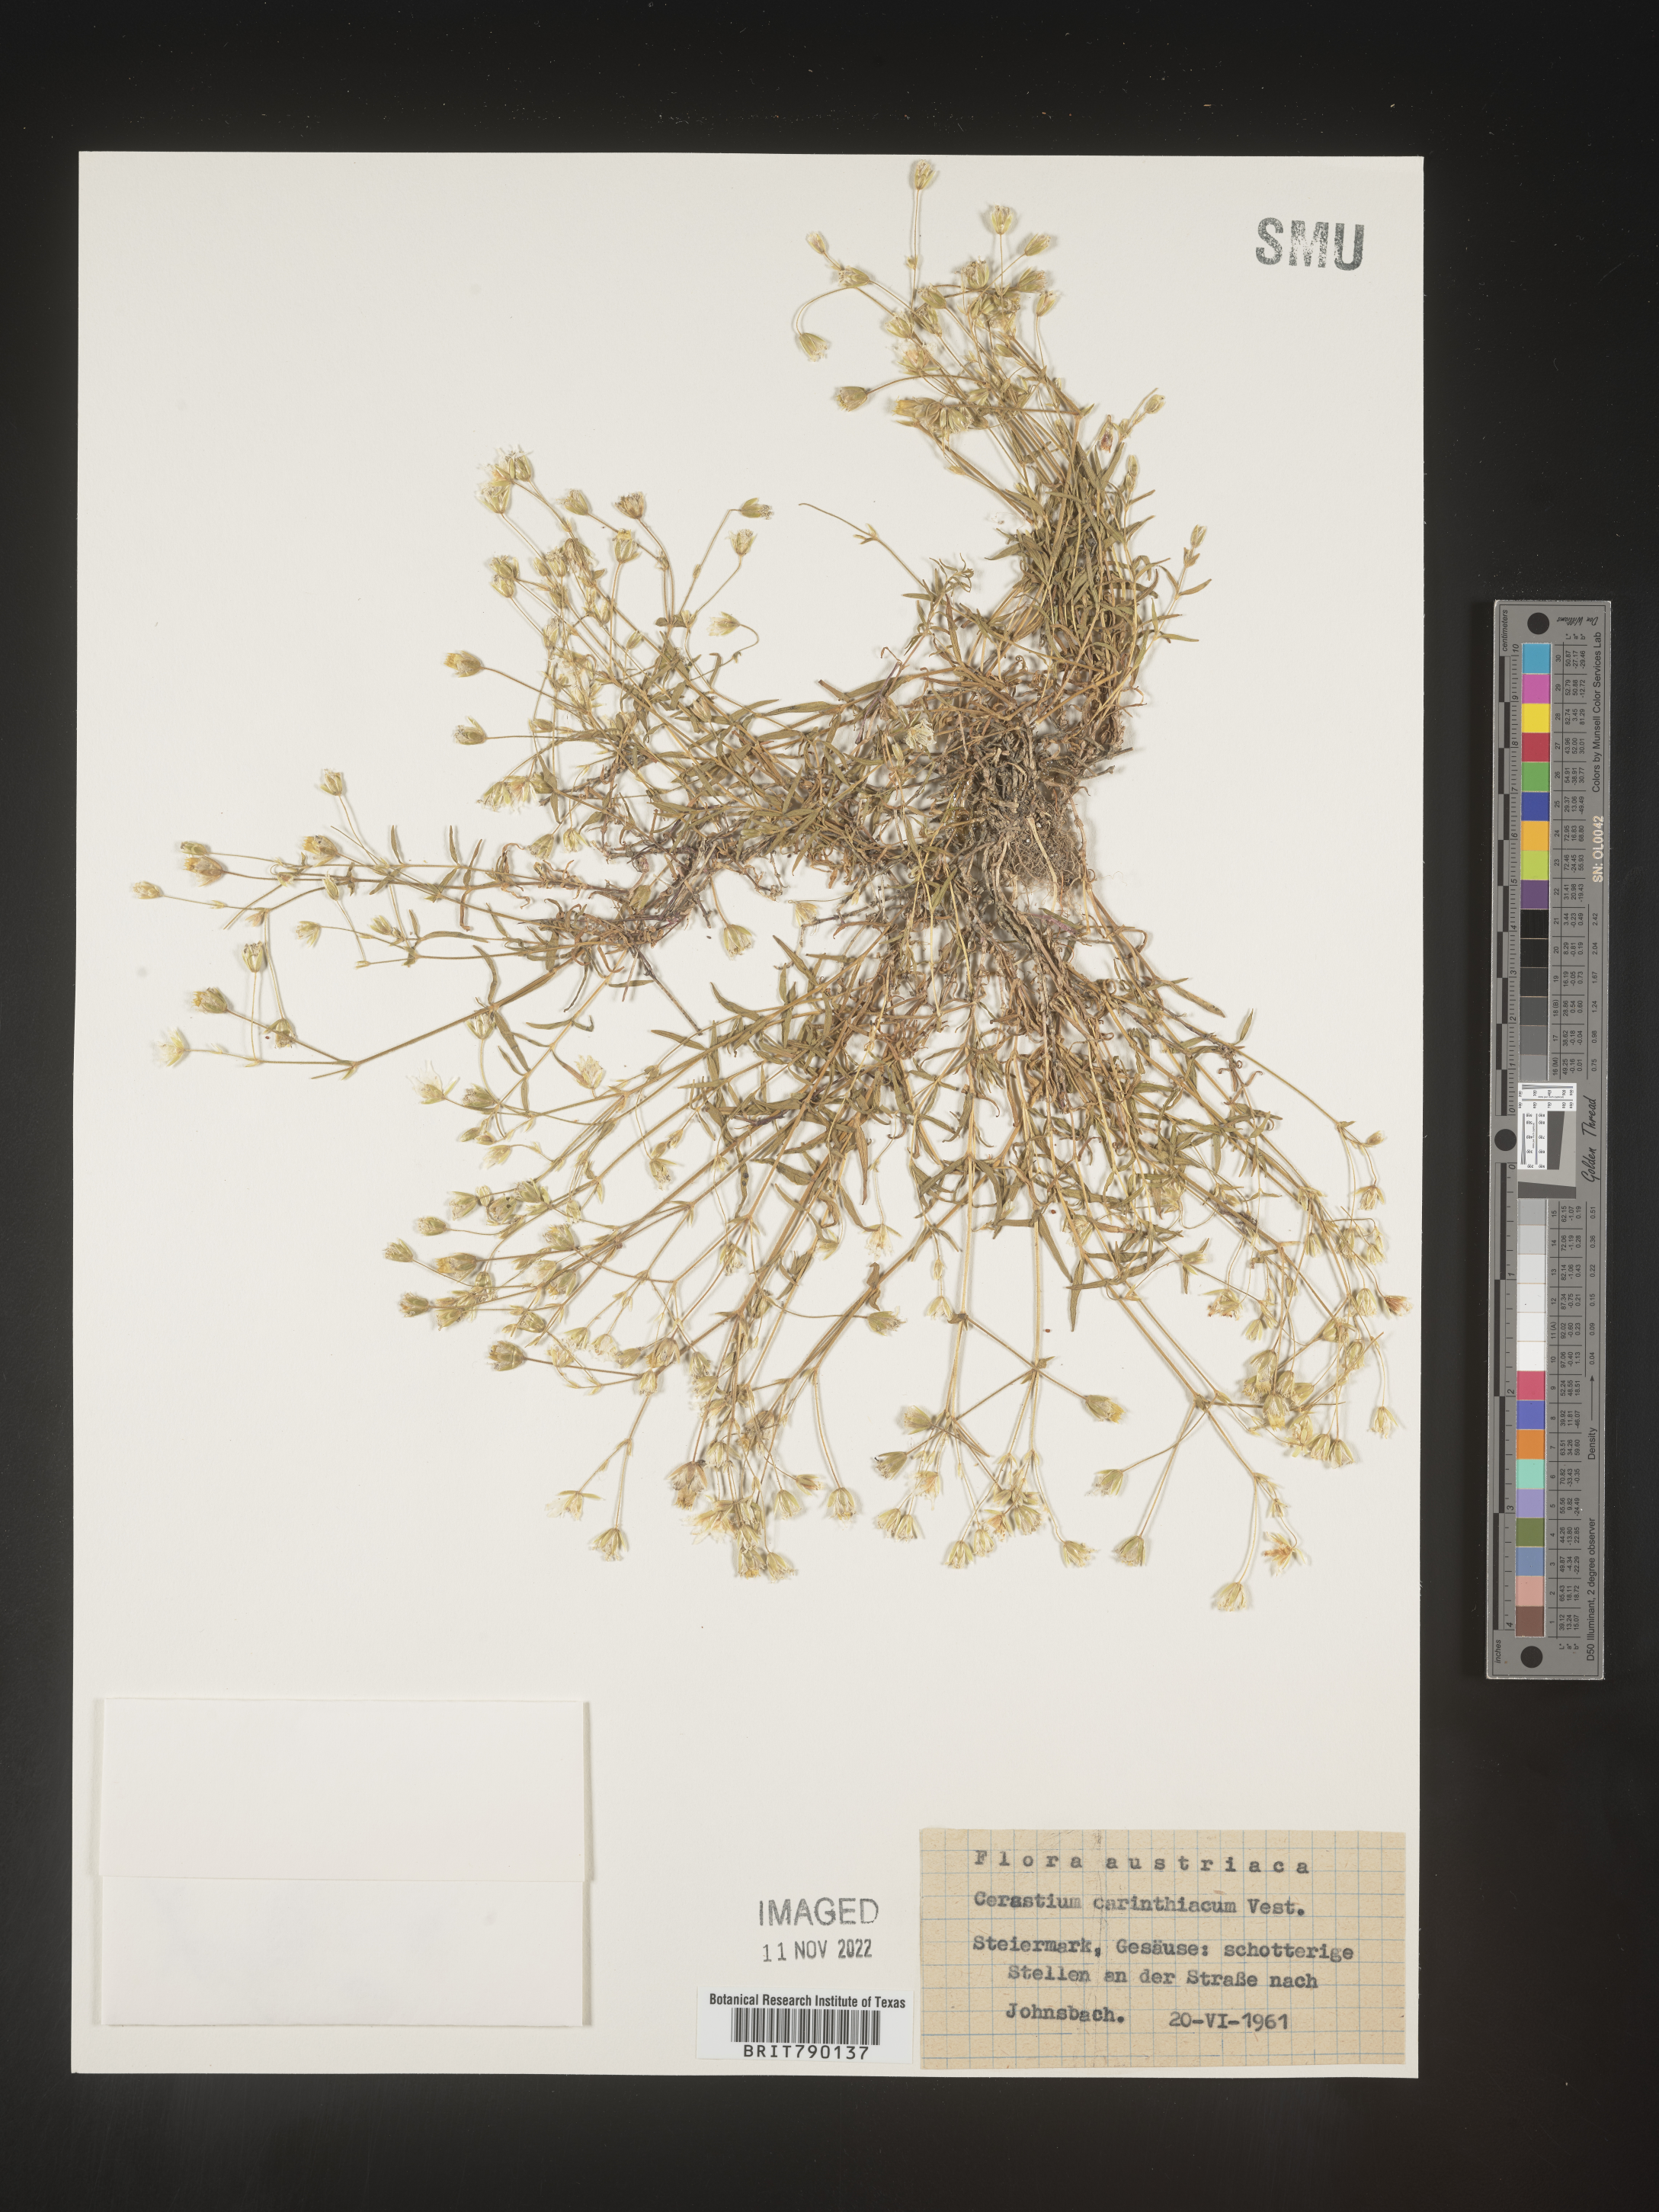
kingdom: Plantae
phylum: Tracheophyta
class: Magnoliopsida
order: Caryophyllales
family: Caryophyllaceae
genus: Cerastium
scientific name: Cerastium
